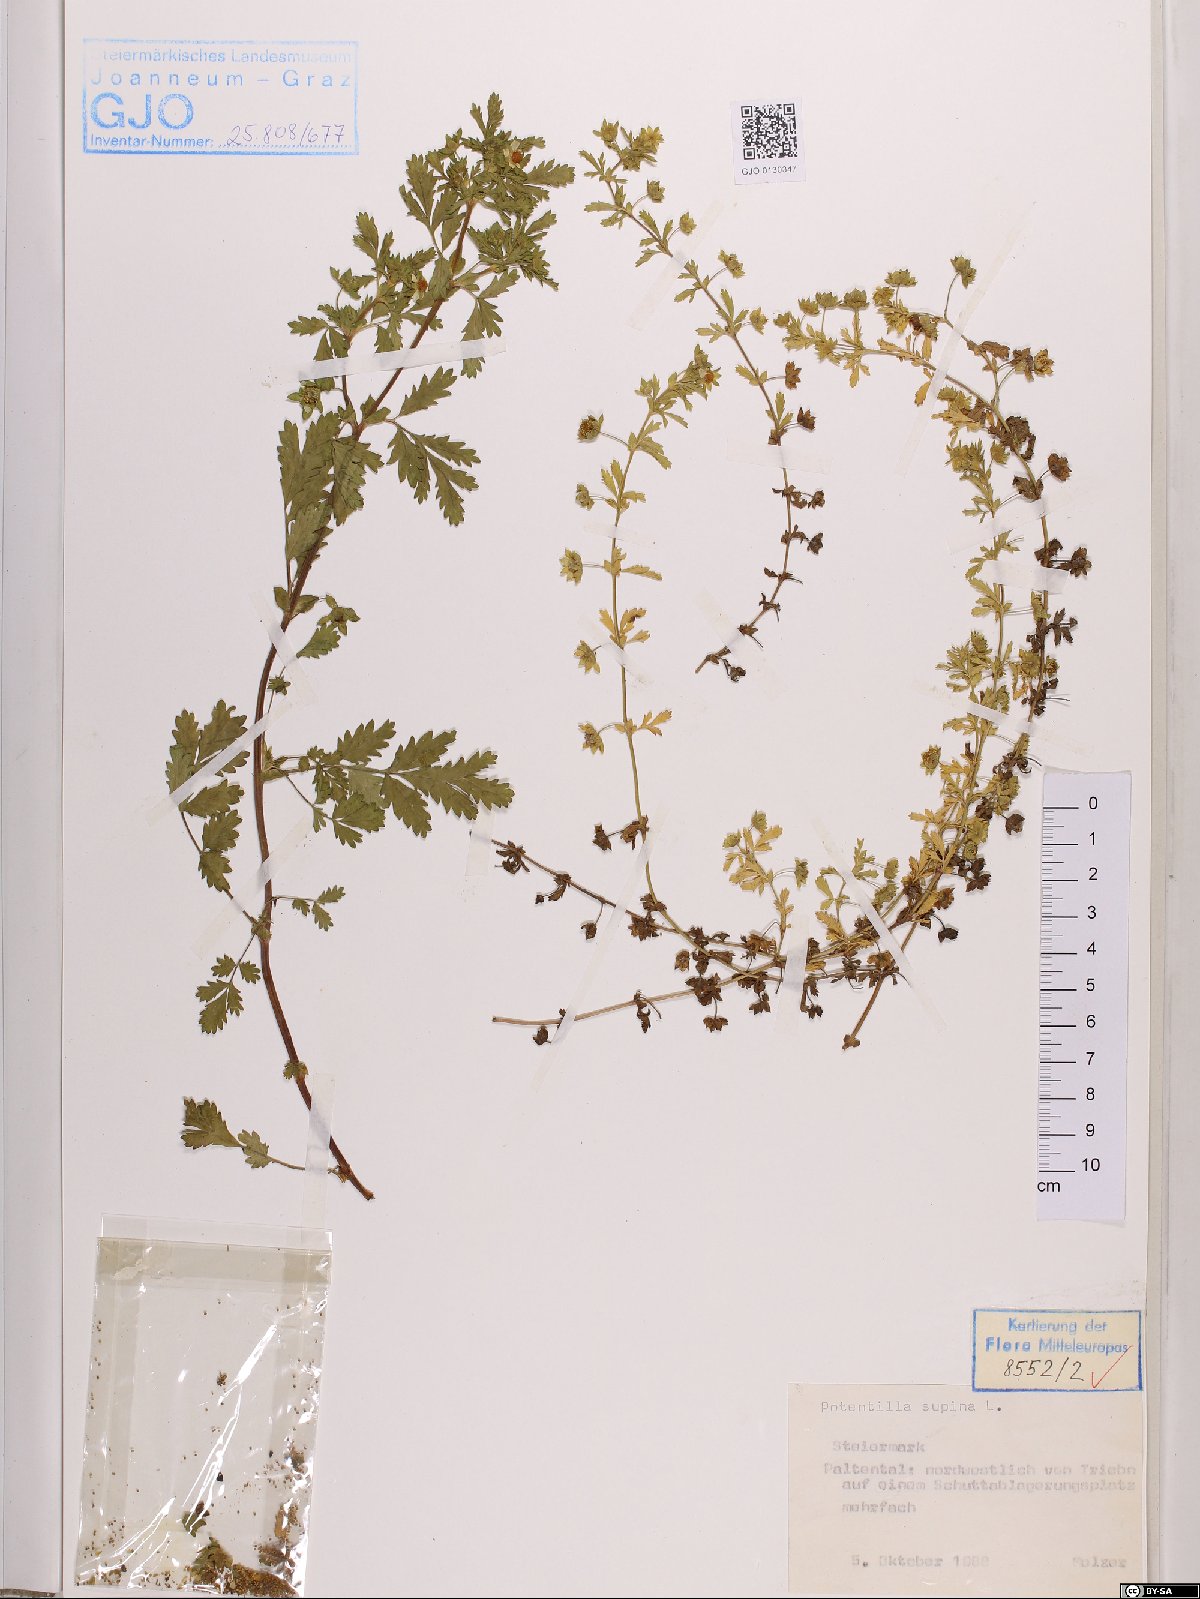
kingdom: Plantae
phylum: Tracheophyta
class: Magnoliopsida
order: Rosales
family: Rosaceae
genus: Potentilla
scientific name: Potentilla supina
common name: Prostrate cinquefoil
